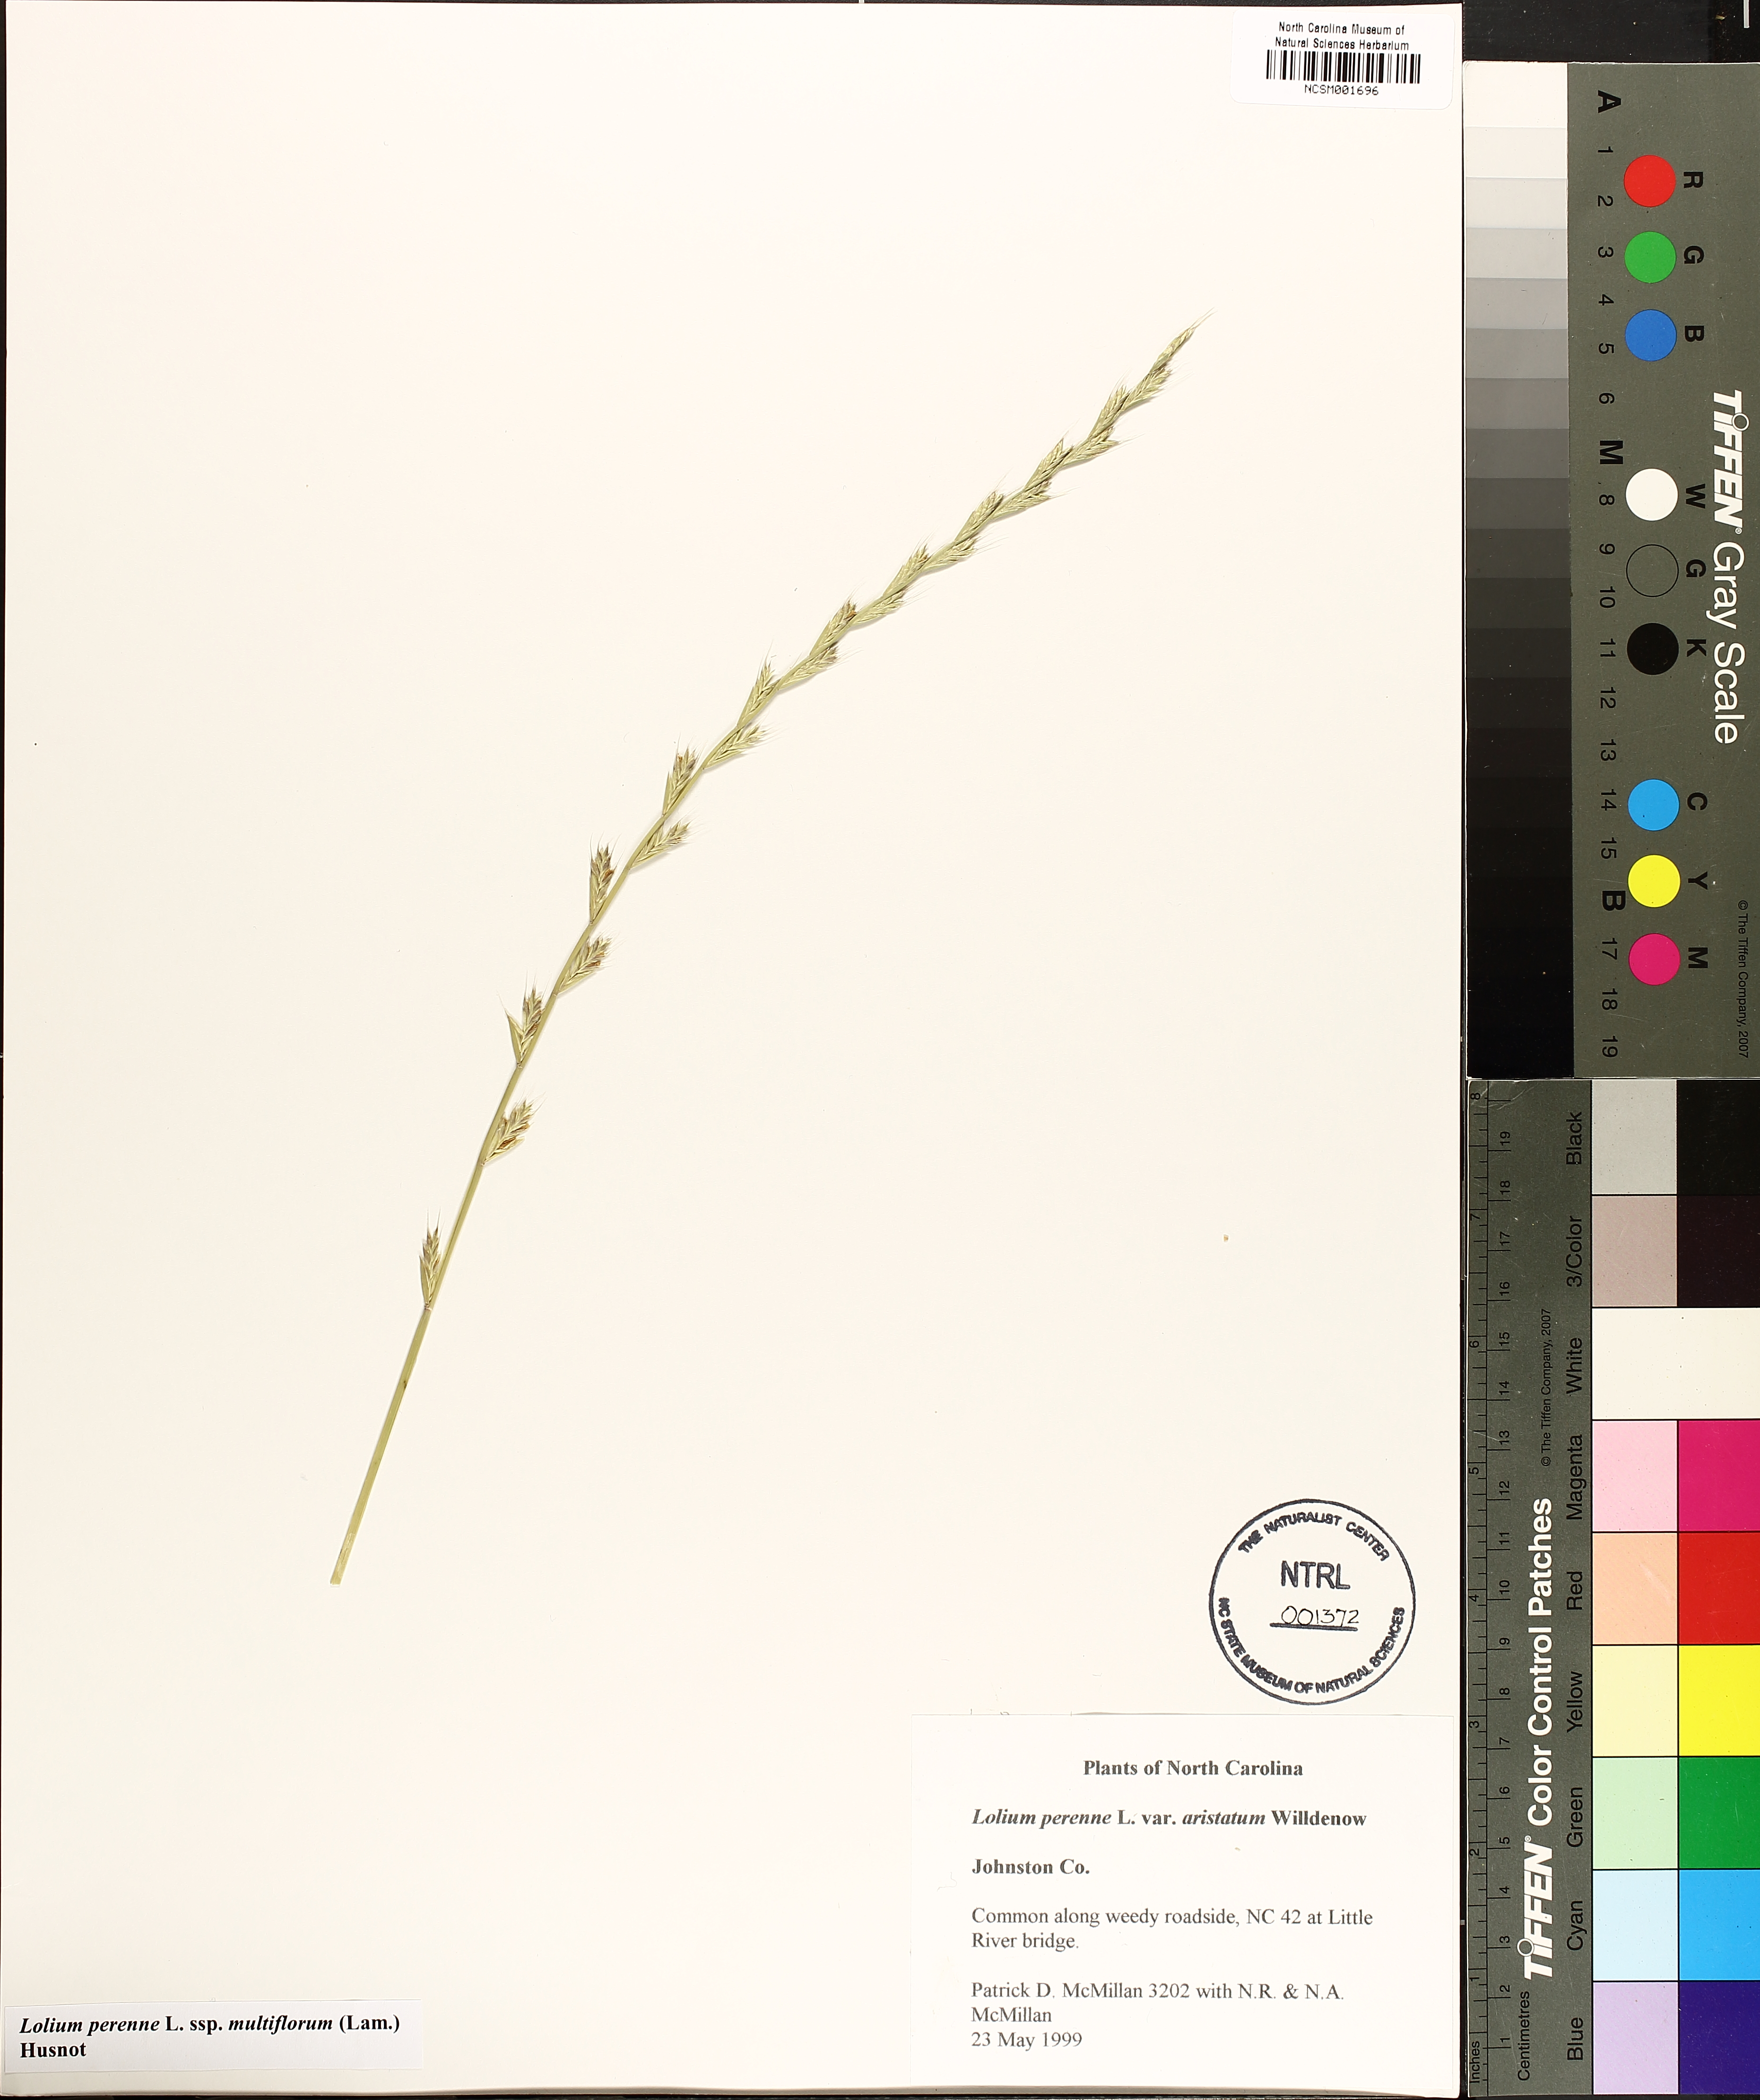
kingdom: Plantae
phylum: Tracheophyta
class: Liliopsida
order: Poales
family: Poaceae
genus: Lolium
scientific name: Lolium multiflorum
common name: Annual ryegrass
